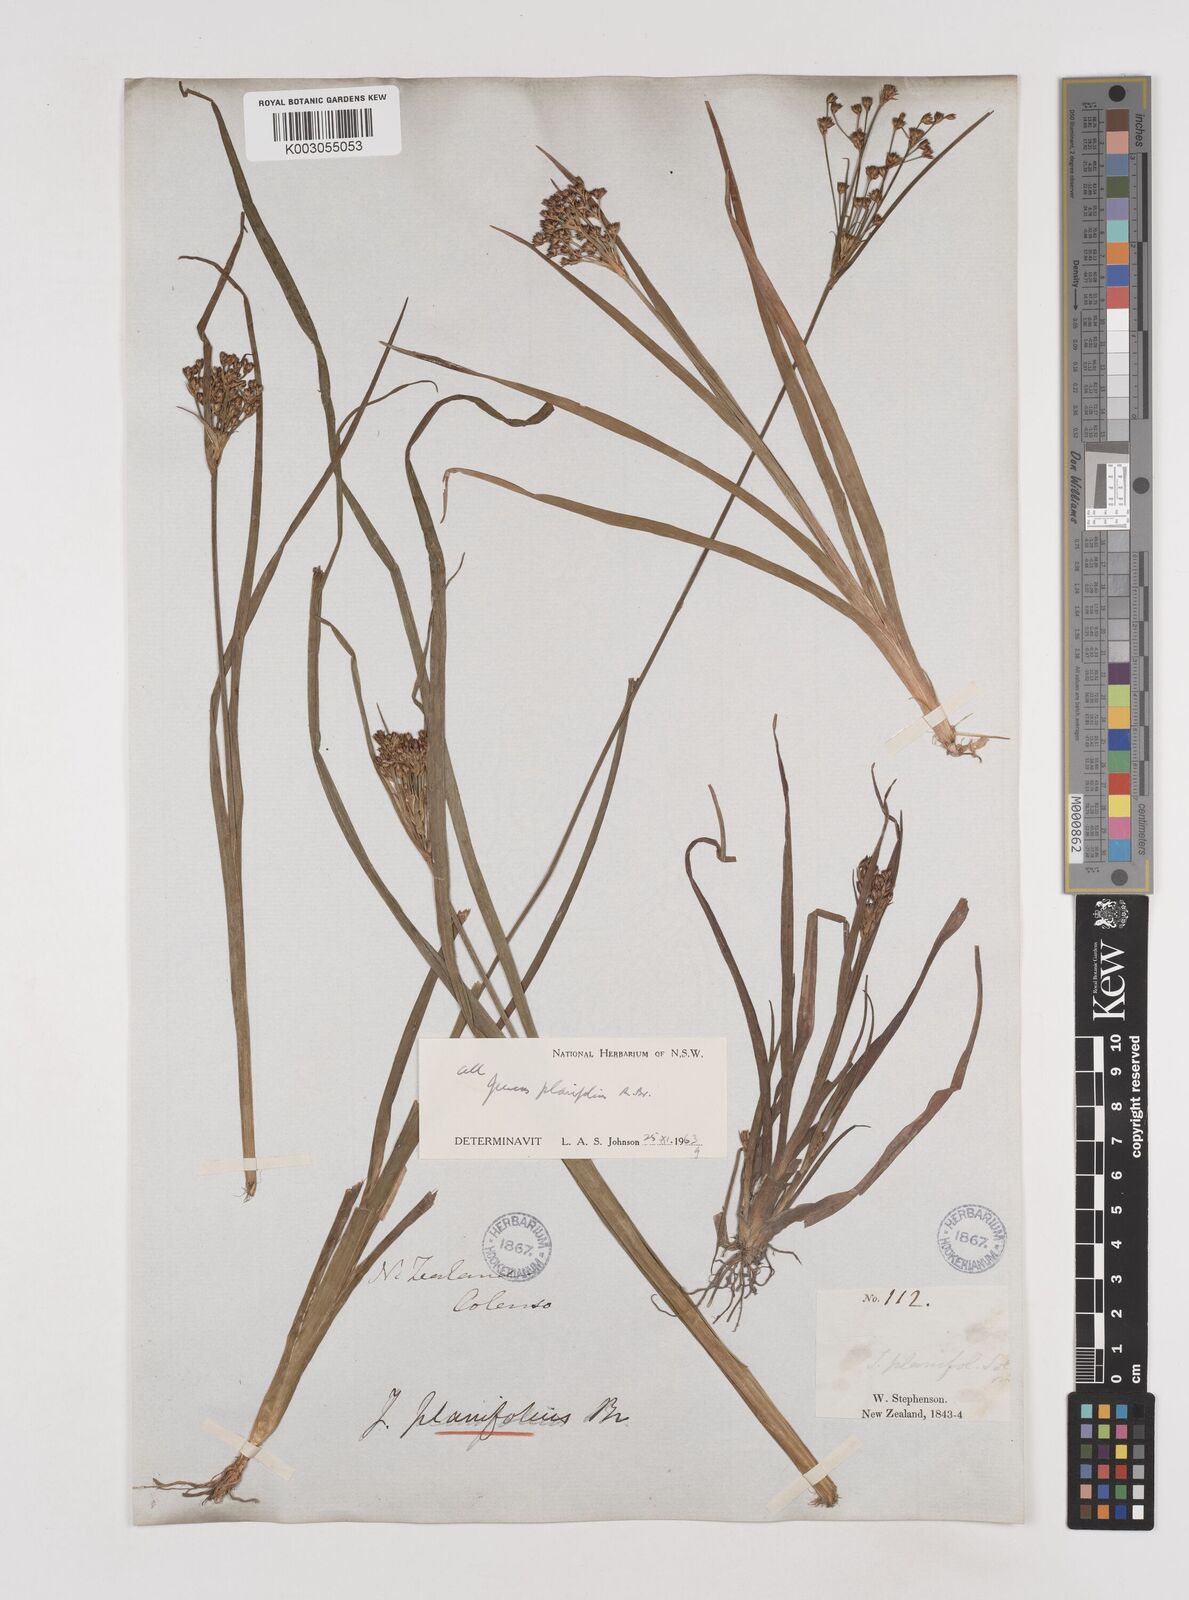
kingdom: Plantae
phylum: Tracheophyta
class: Liliopsida
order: Poales
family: Juncaceae
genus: Juncus
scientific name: Juncus planifolius
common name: Broadleaf rush
